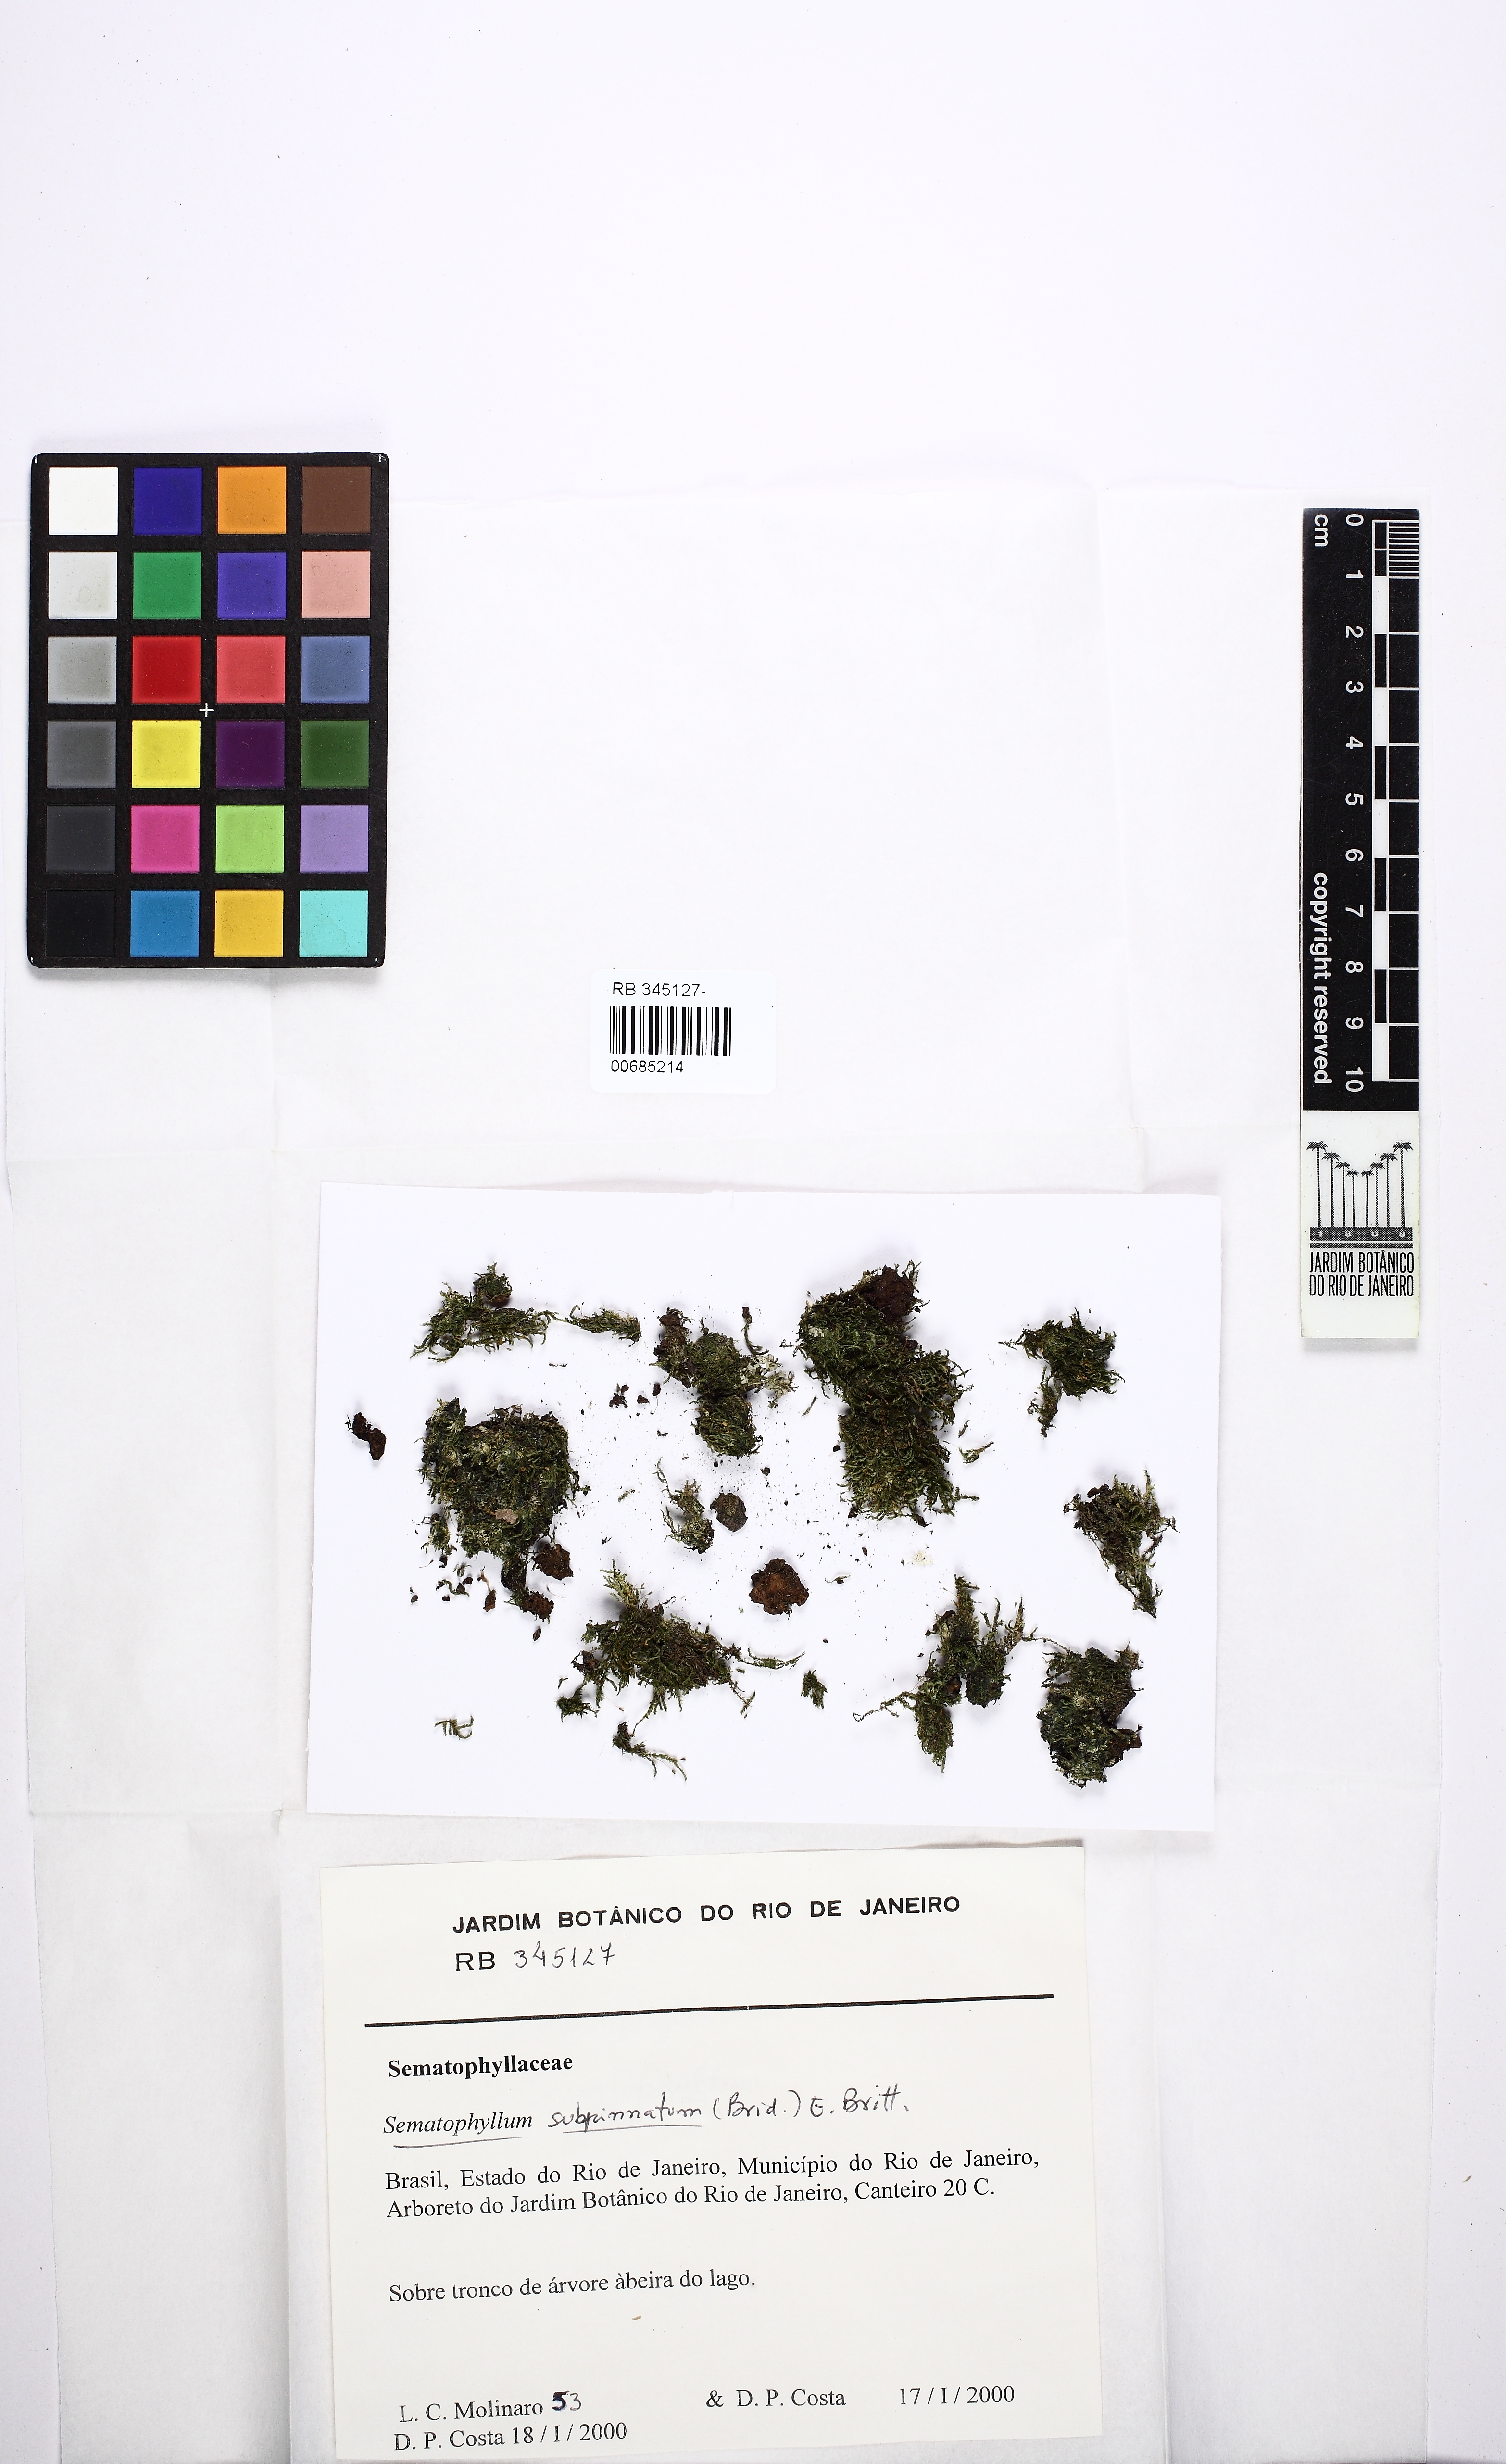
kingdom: Plantae
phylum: Bryophyta
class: Bryopsida
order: Hypnales
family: Sematophyllaceae
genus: Brittonodoxa
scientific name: Brittonodoxa subpinnata
